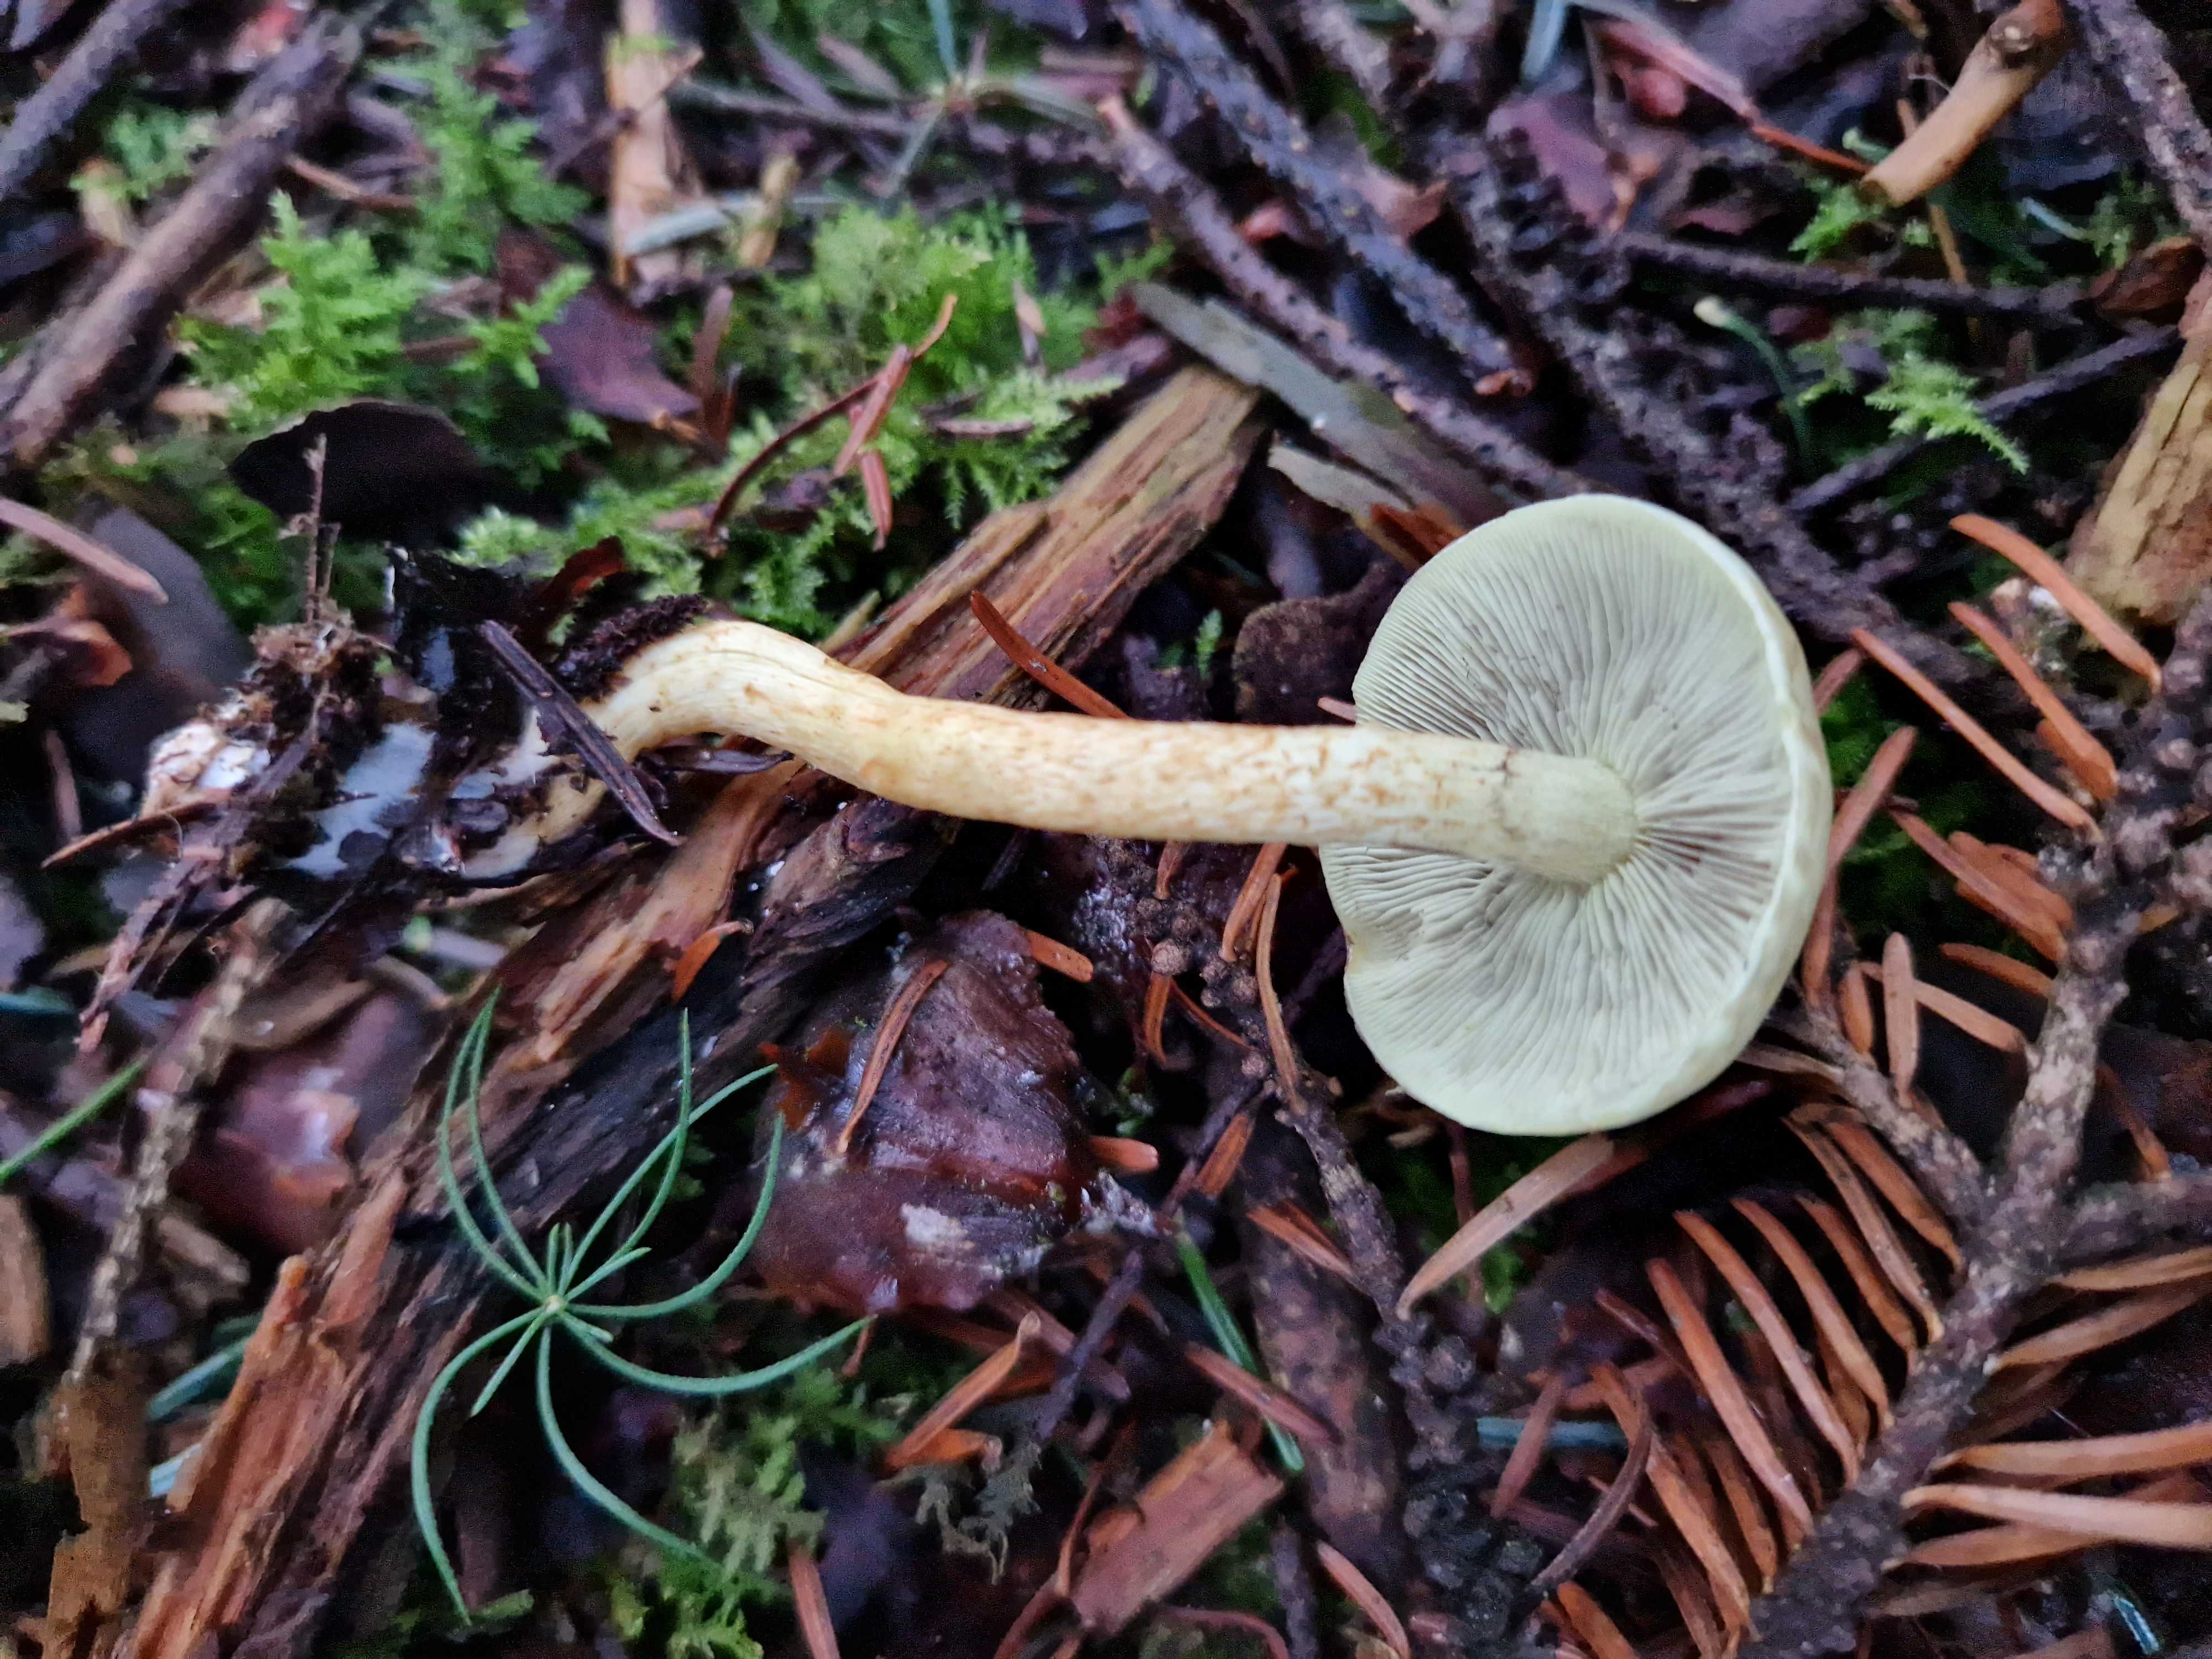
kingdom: Fungi
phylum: Basidiomycota
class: Agaricomycetes
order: Agaricales
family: Strophariaceae
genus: Hypholoma
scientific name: Hypholoma fasciculare
